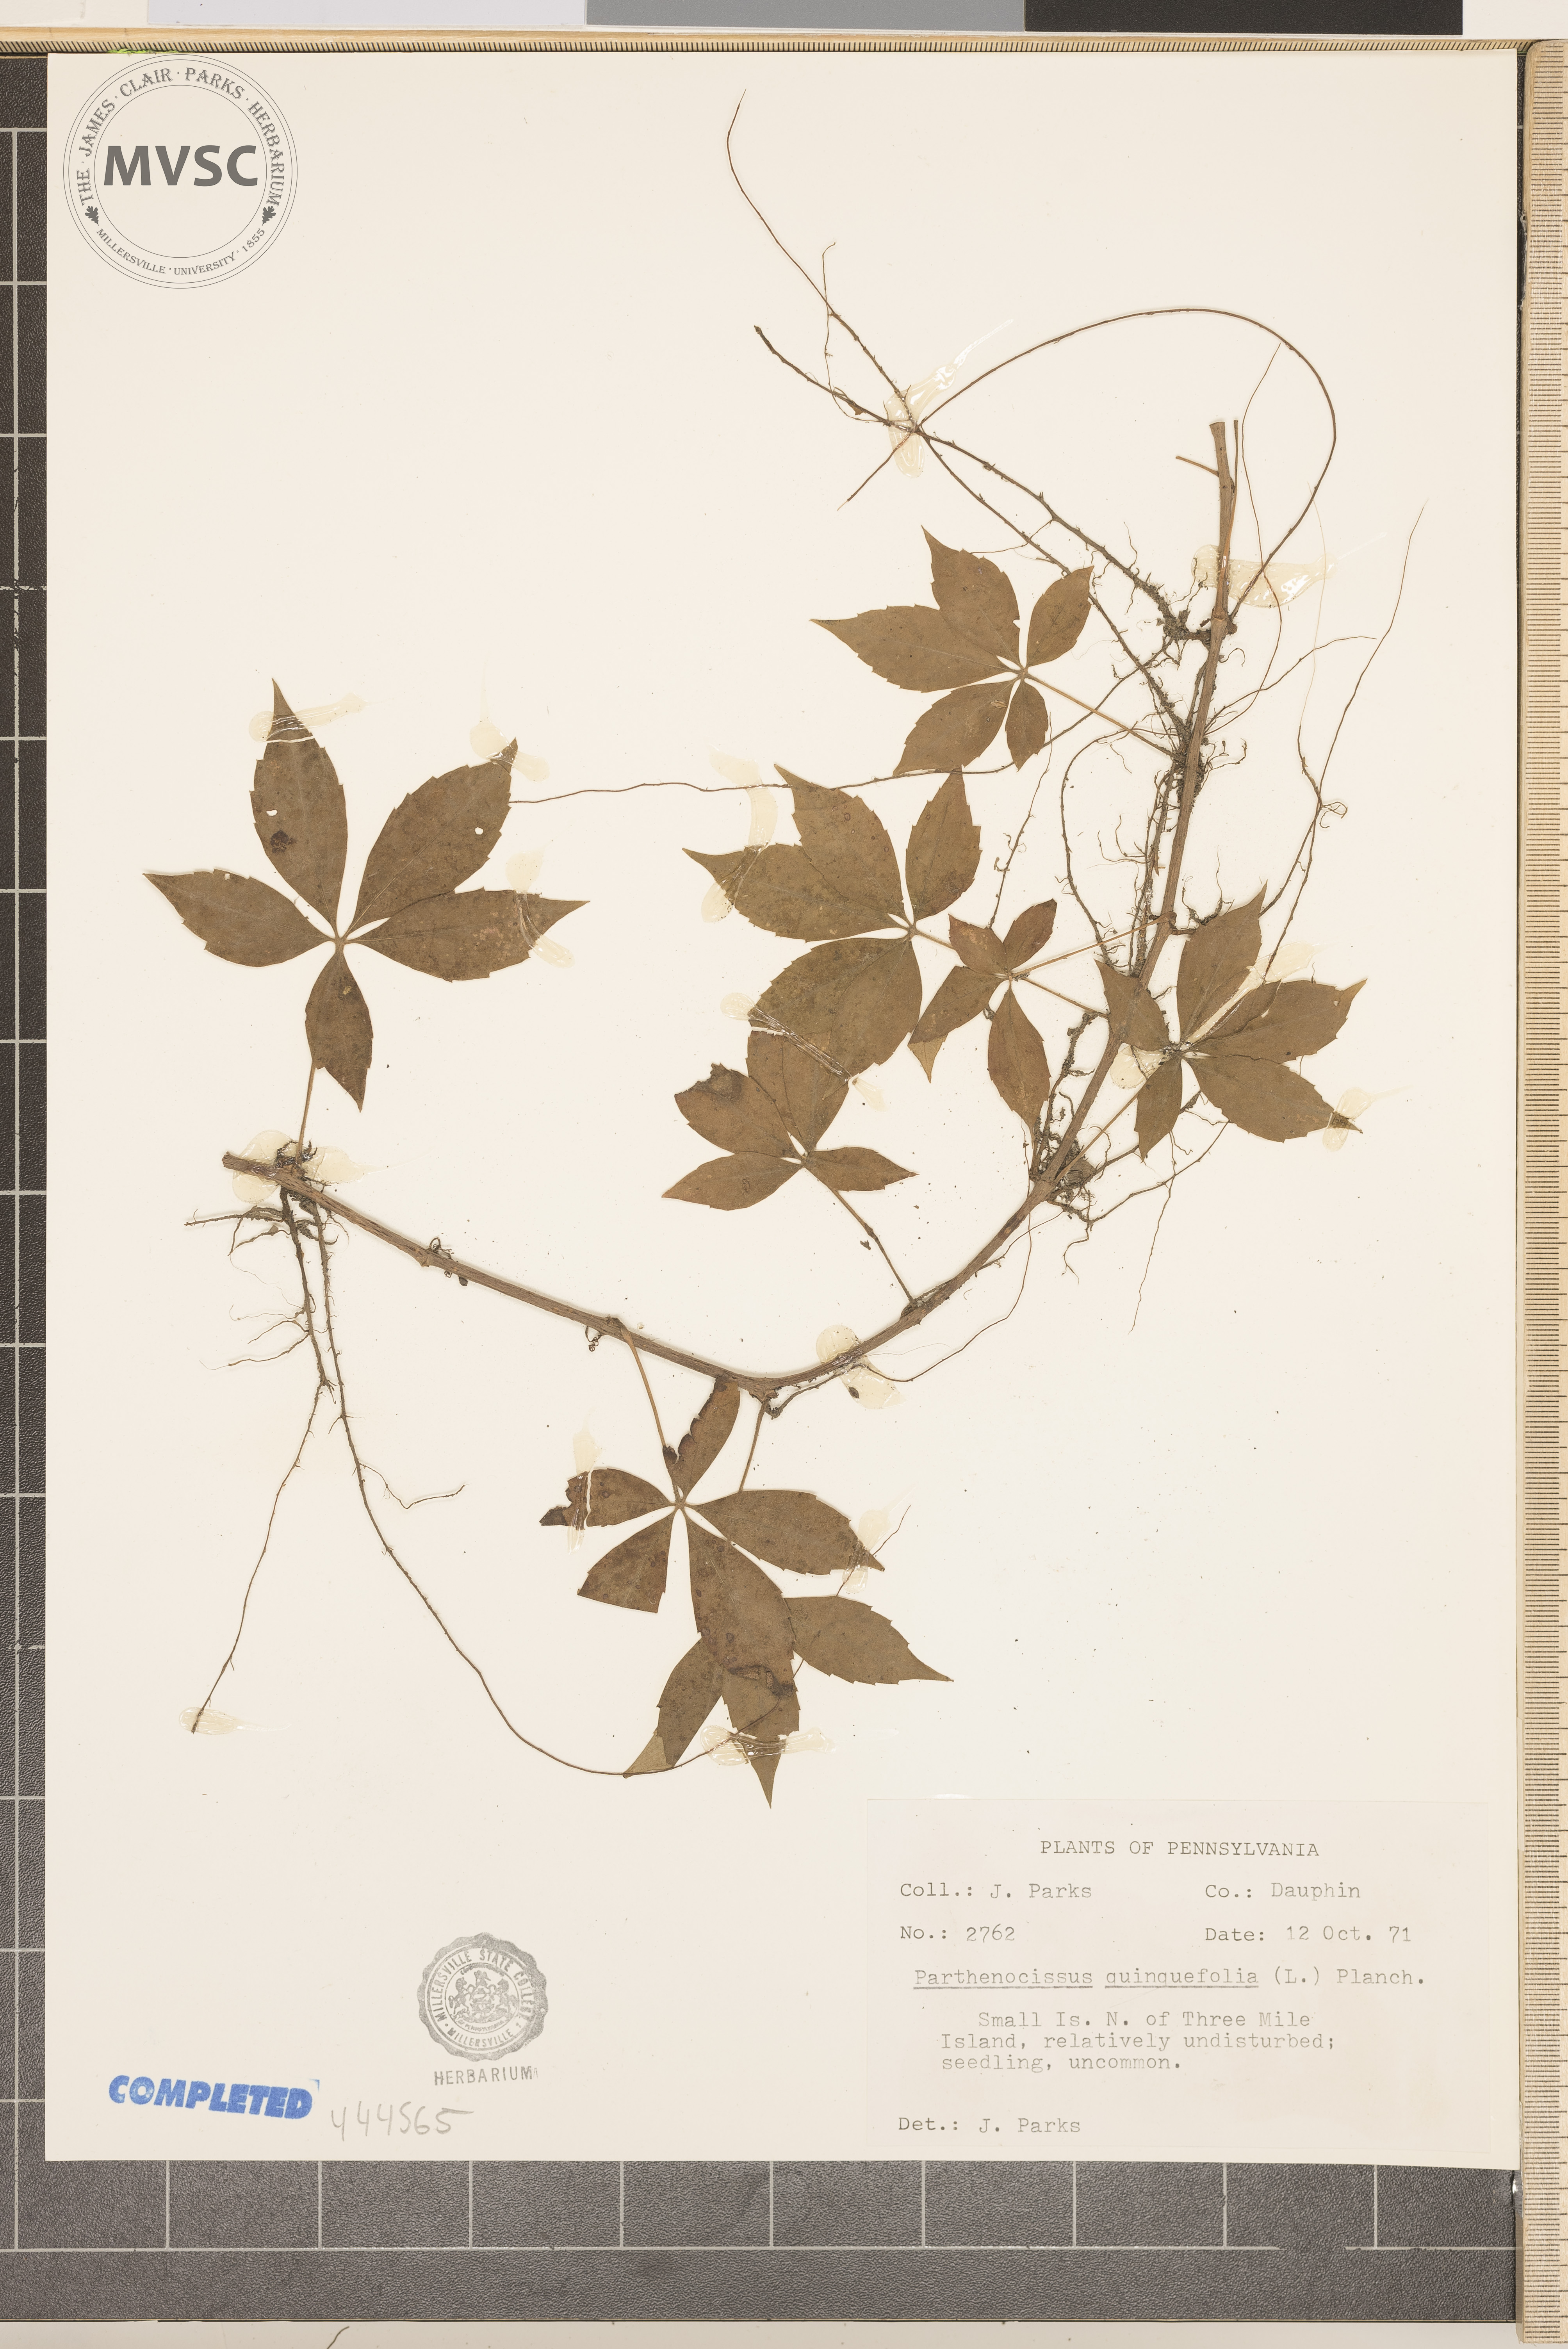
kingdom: Plantae
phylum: Tracheophyta
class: Magnoliopsida
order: Vitales
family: Vitaceae
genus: Parthenocissus
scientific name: Parthenocissus quinquefolia
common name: Virginia-creeper
